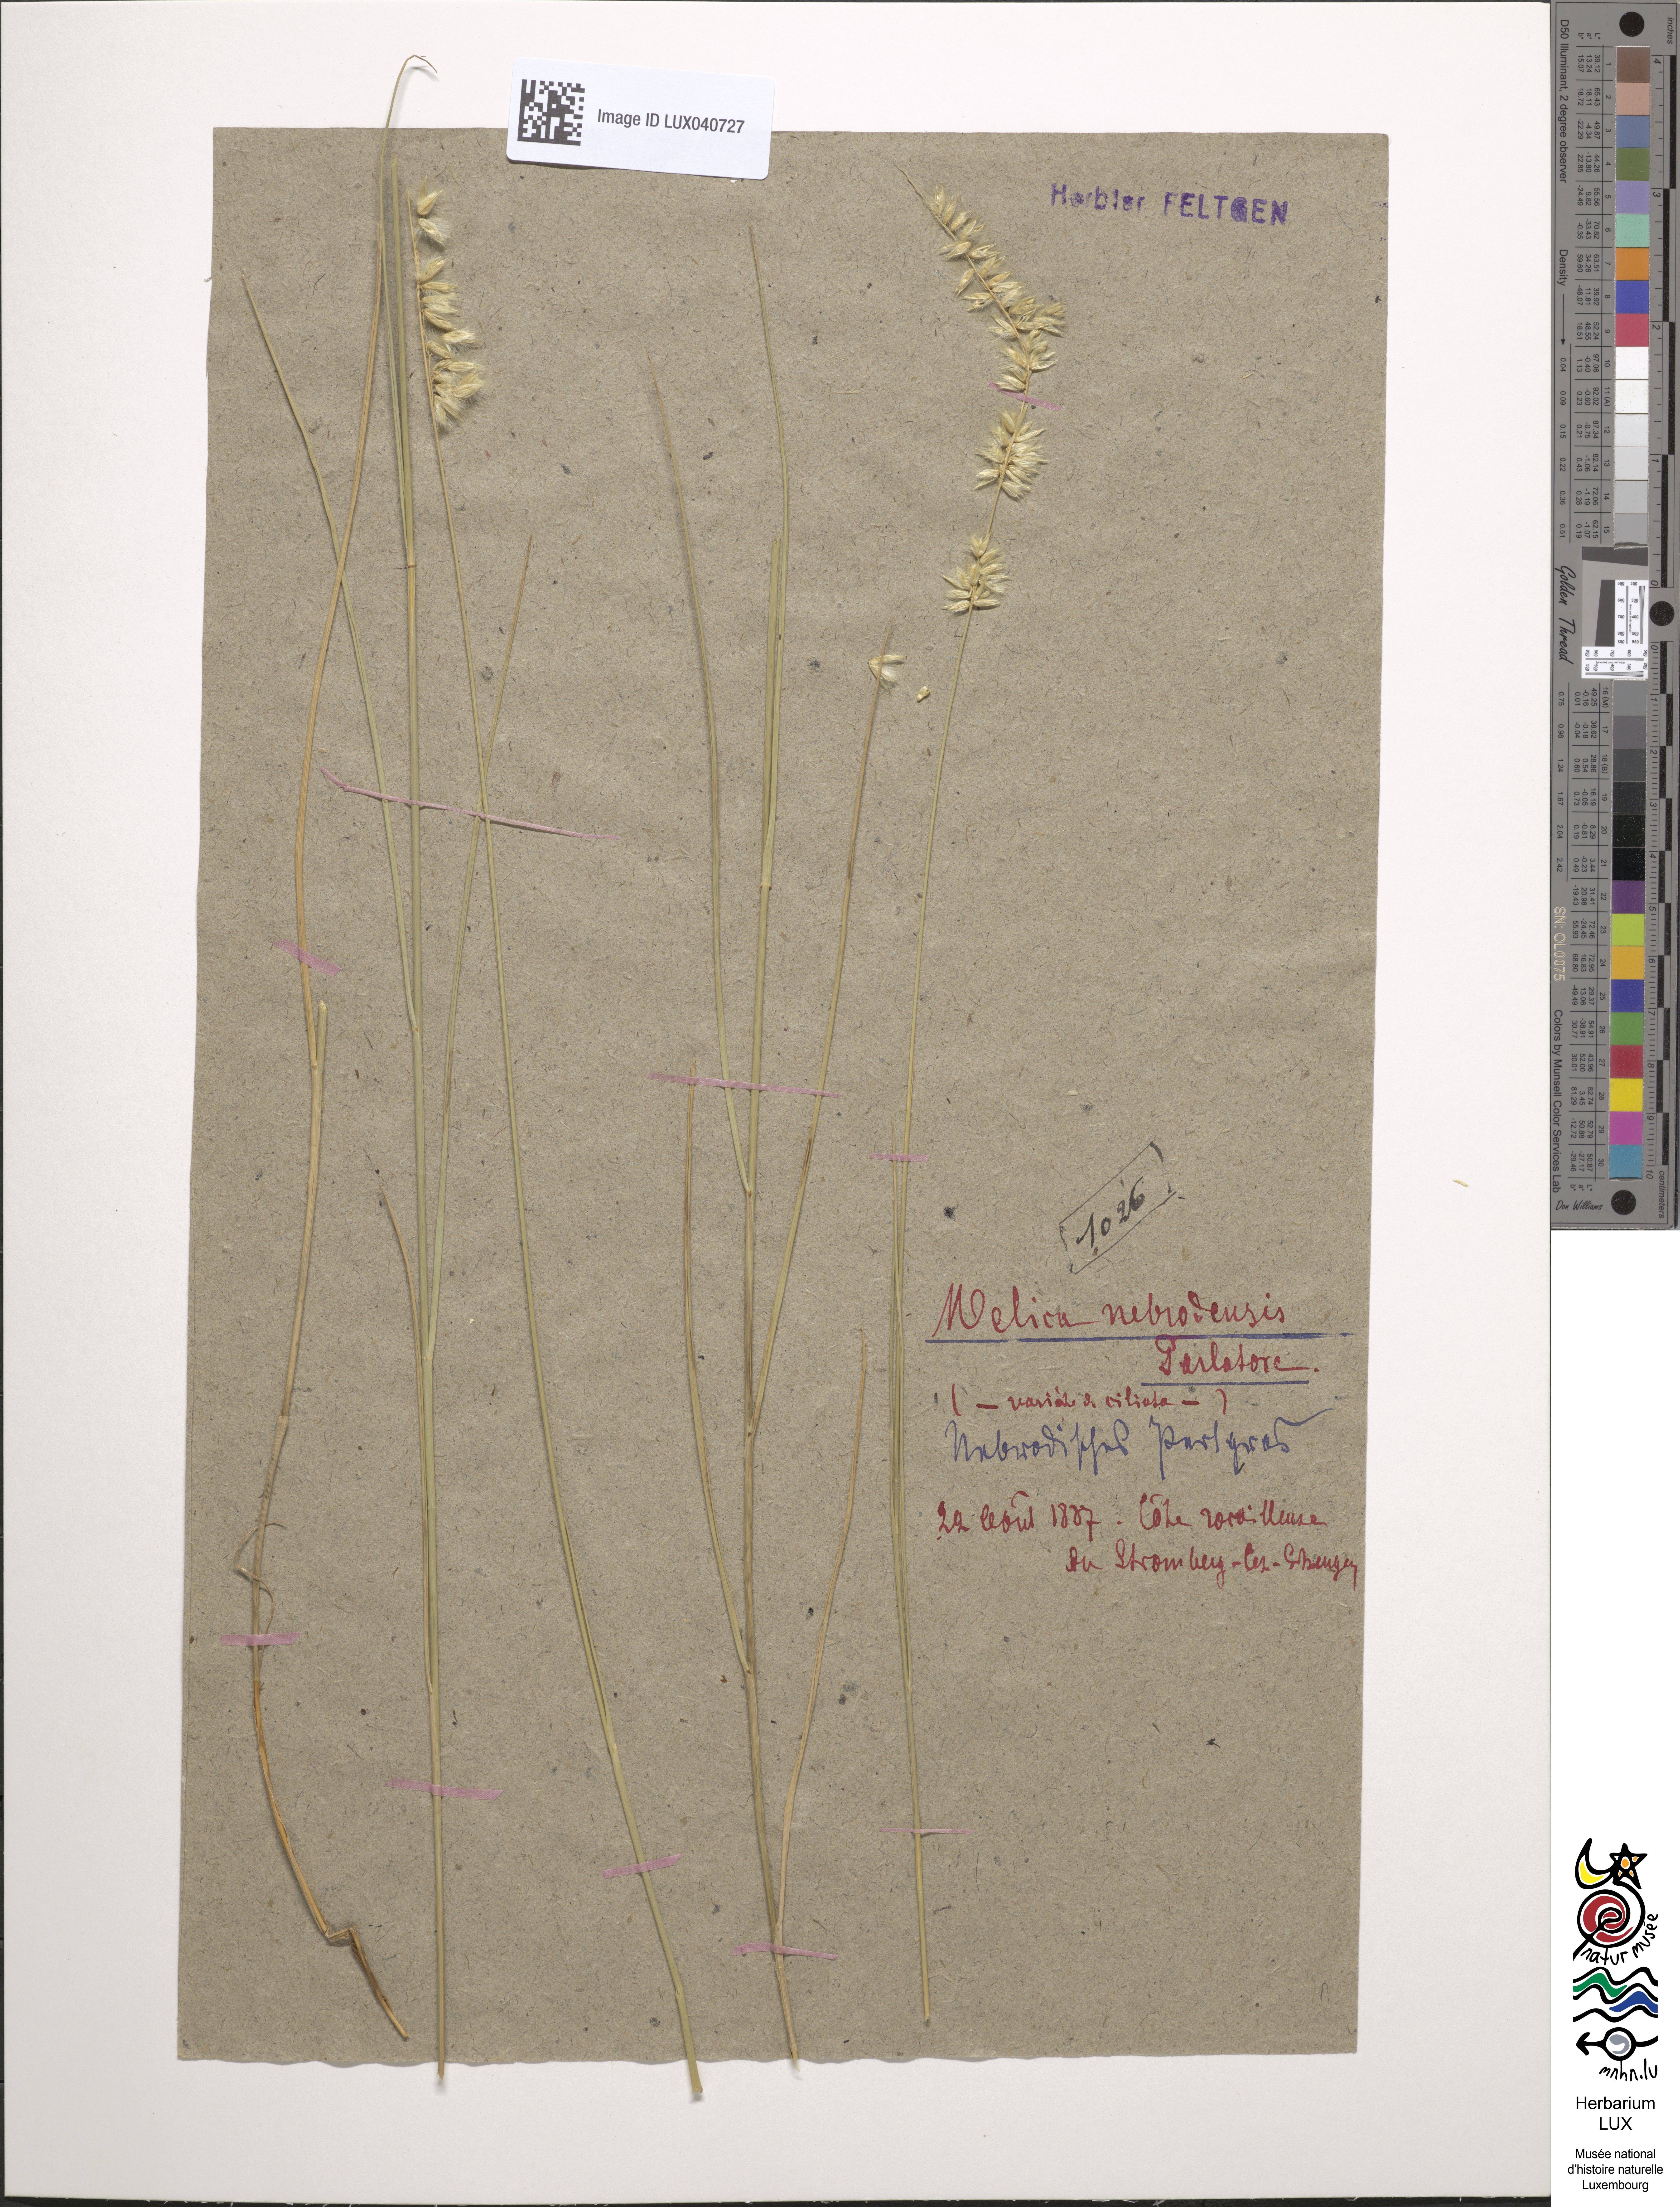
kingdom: Plantae
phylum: Tracheophyta
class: Liliopsida
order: Poales
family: Poaceae
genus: Melica
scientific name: Melica ciliata
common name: Hairy melicgrass
